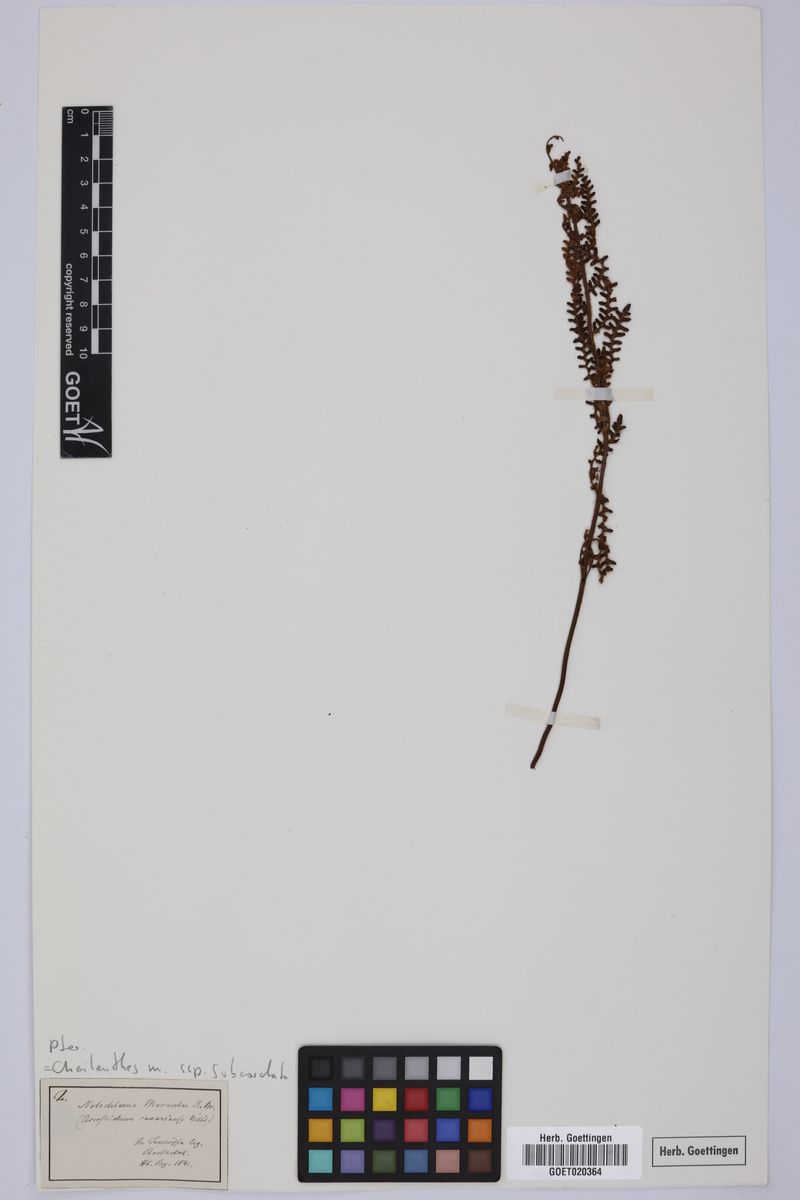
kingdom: Plantae
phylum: Tracheophyta
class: Polypodiopsida
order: Polypodiales
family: Pteridaceae
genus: Paragymnopteris
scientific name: Paragymnopteris marantae
